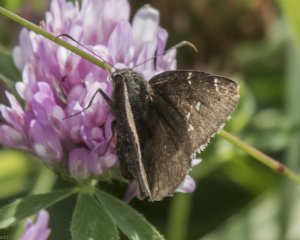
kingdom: Animalia
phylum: Arthropoda
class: Insecta
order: Lepidoptera
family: Hesperiidae
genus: Autochton
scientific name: Autochton
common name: Northern Cloudywing
